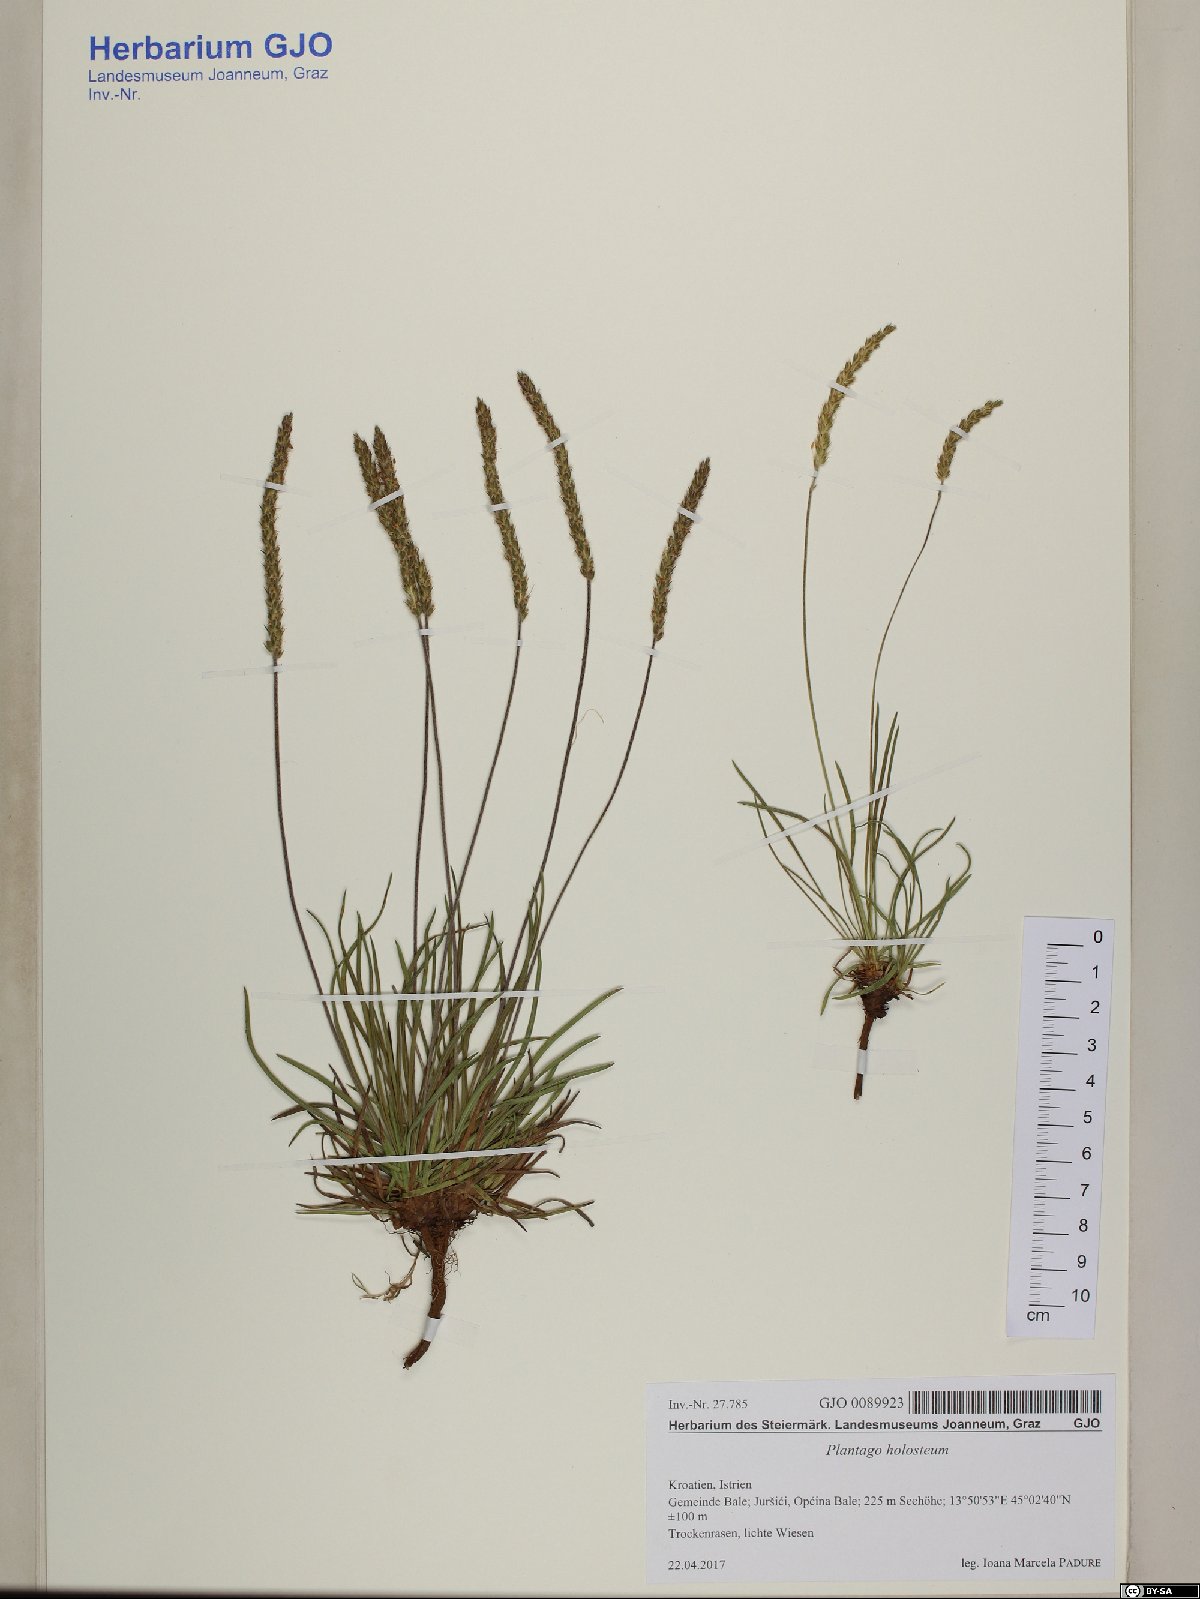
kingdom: Plantae
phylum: Tracheophyta
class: Magnoliopsida
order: Lamiales
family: Plantaginaceae
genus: Plantago
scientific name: Plantago subulata
